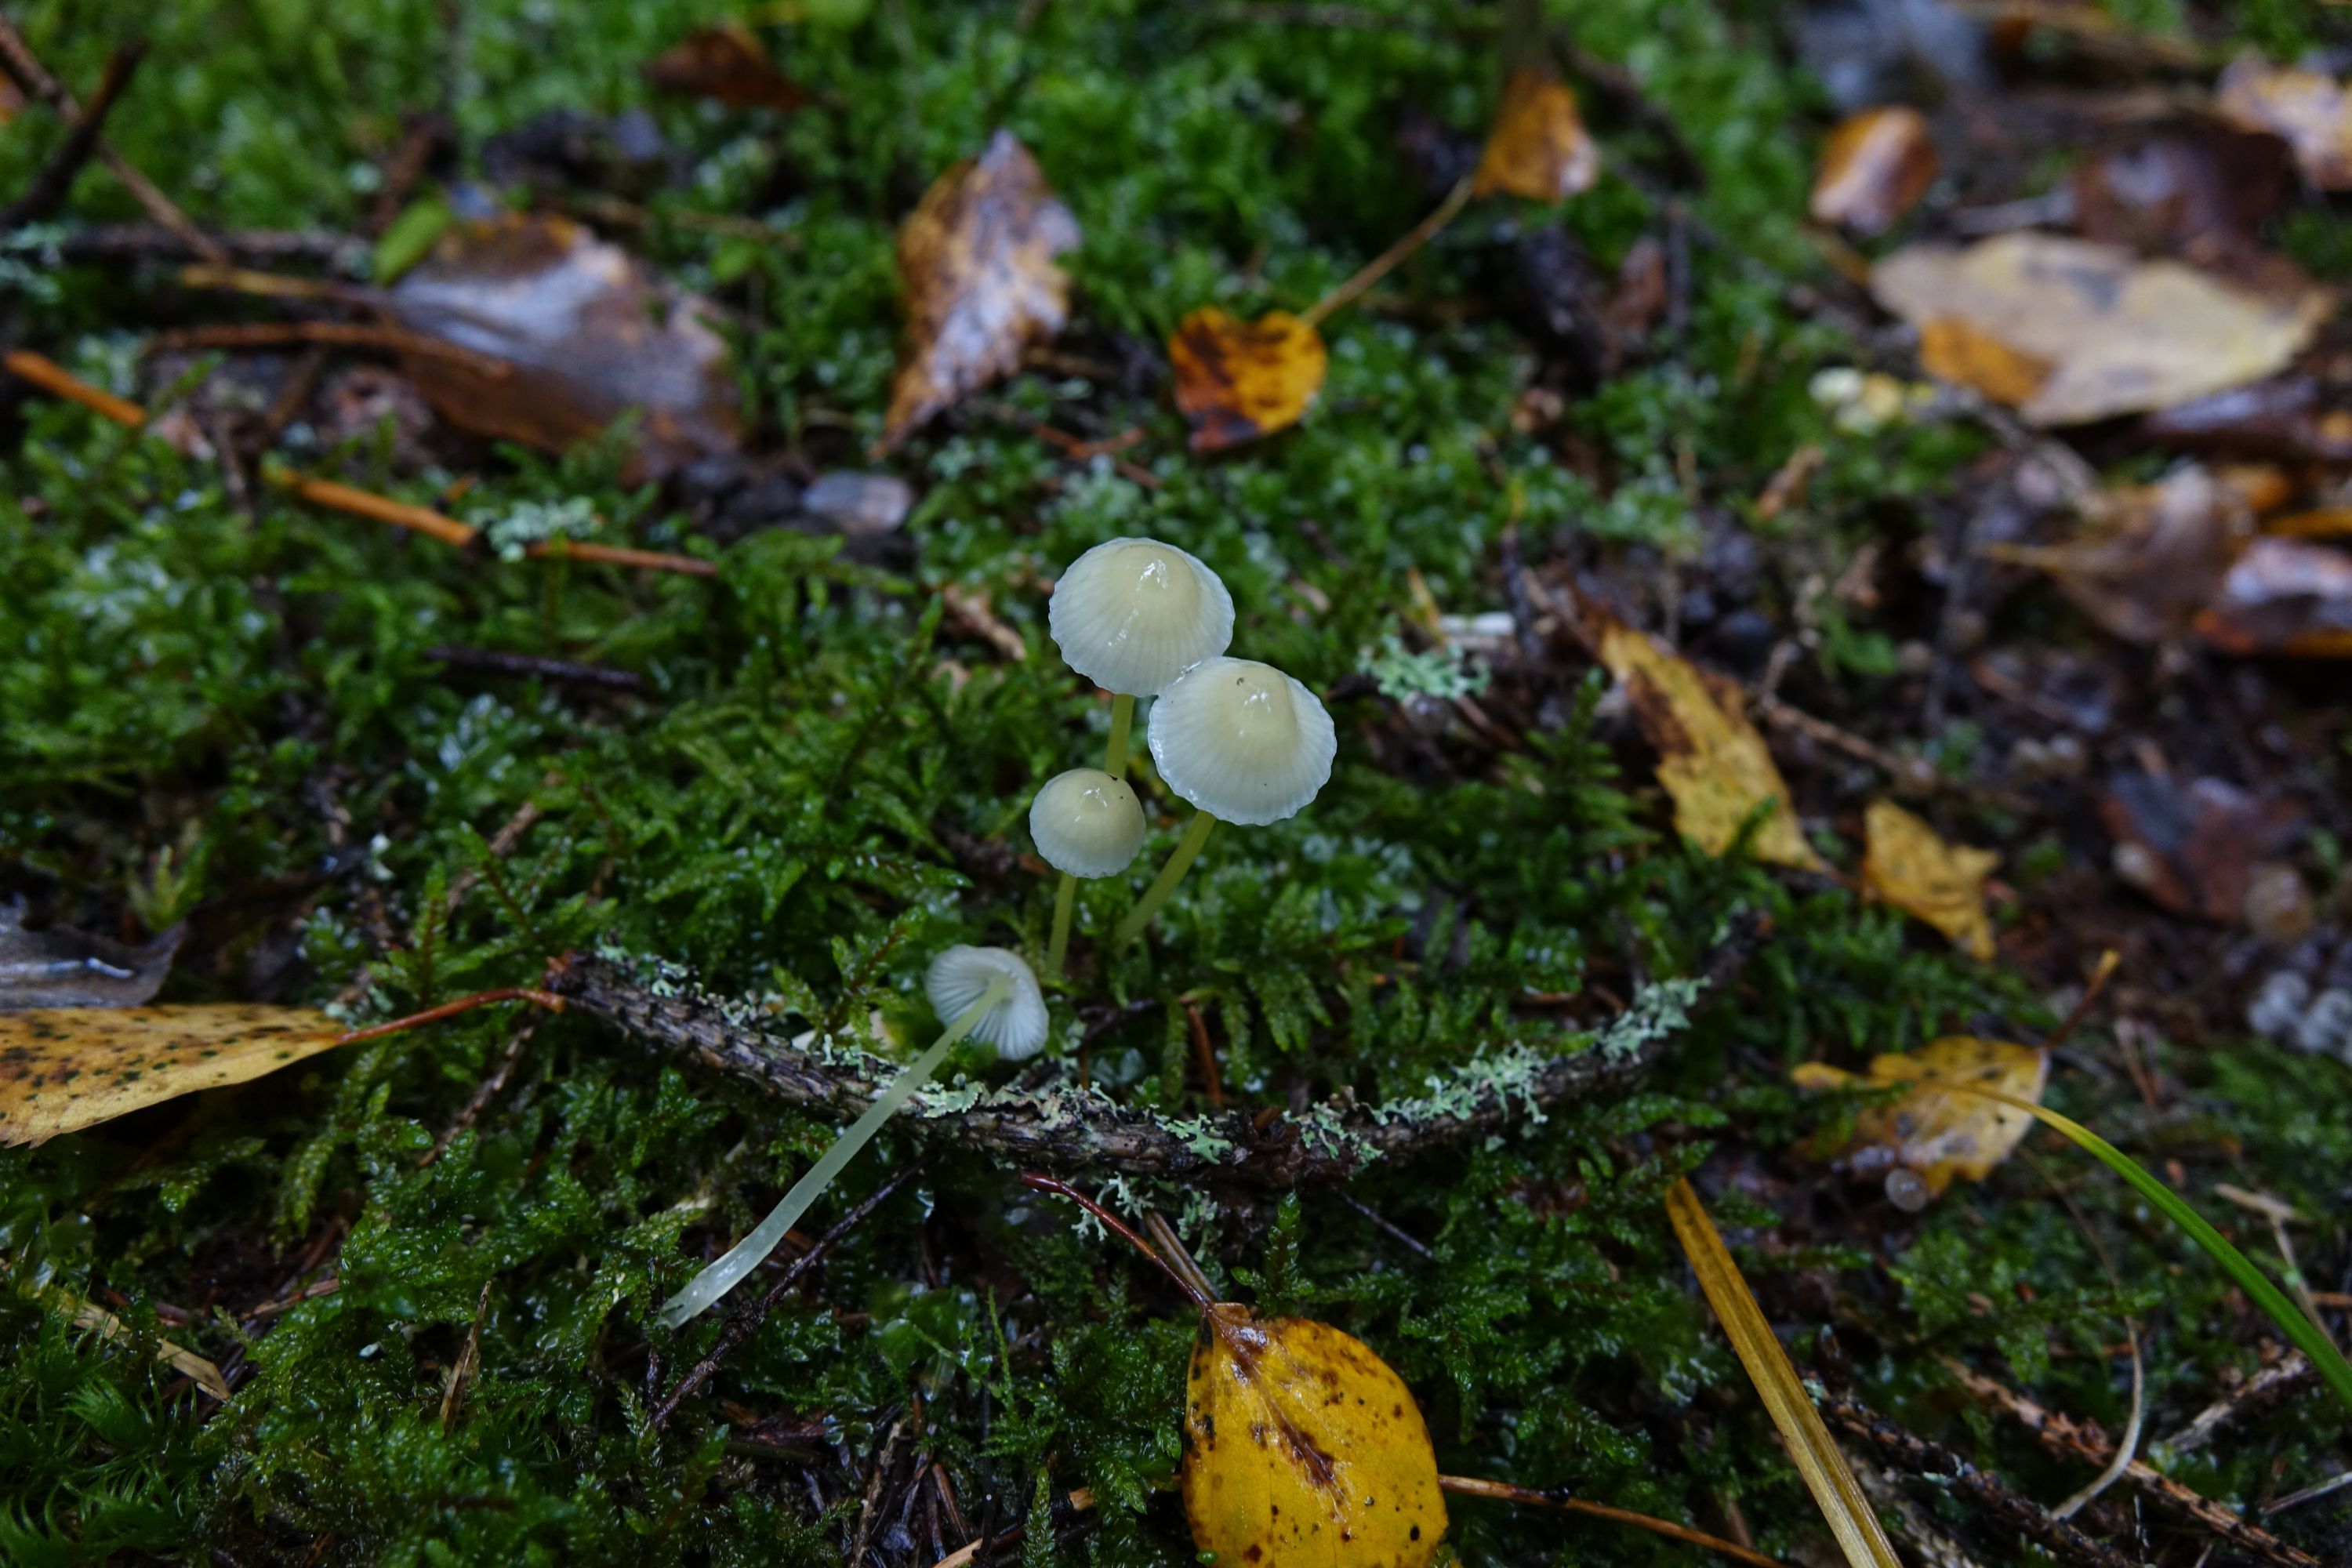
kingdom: Fungi
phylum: Basidiomycota
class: Agaricomycetes
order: Agaricales
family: Mycenaceae
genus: Mycena
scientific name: Mycena epipterygia
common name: Yellowleg bonnet
